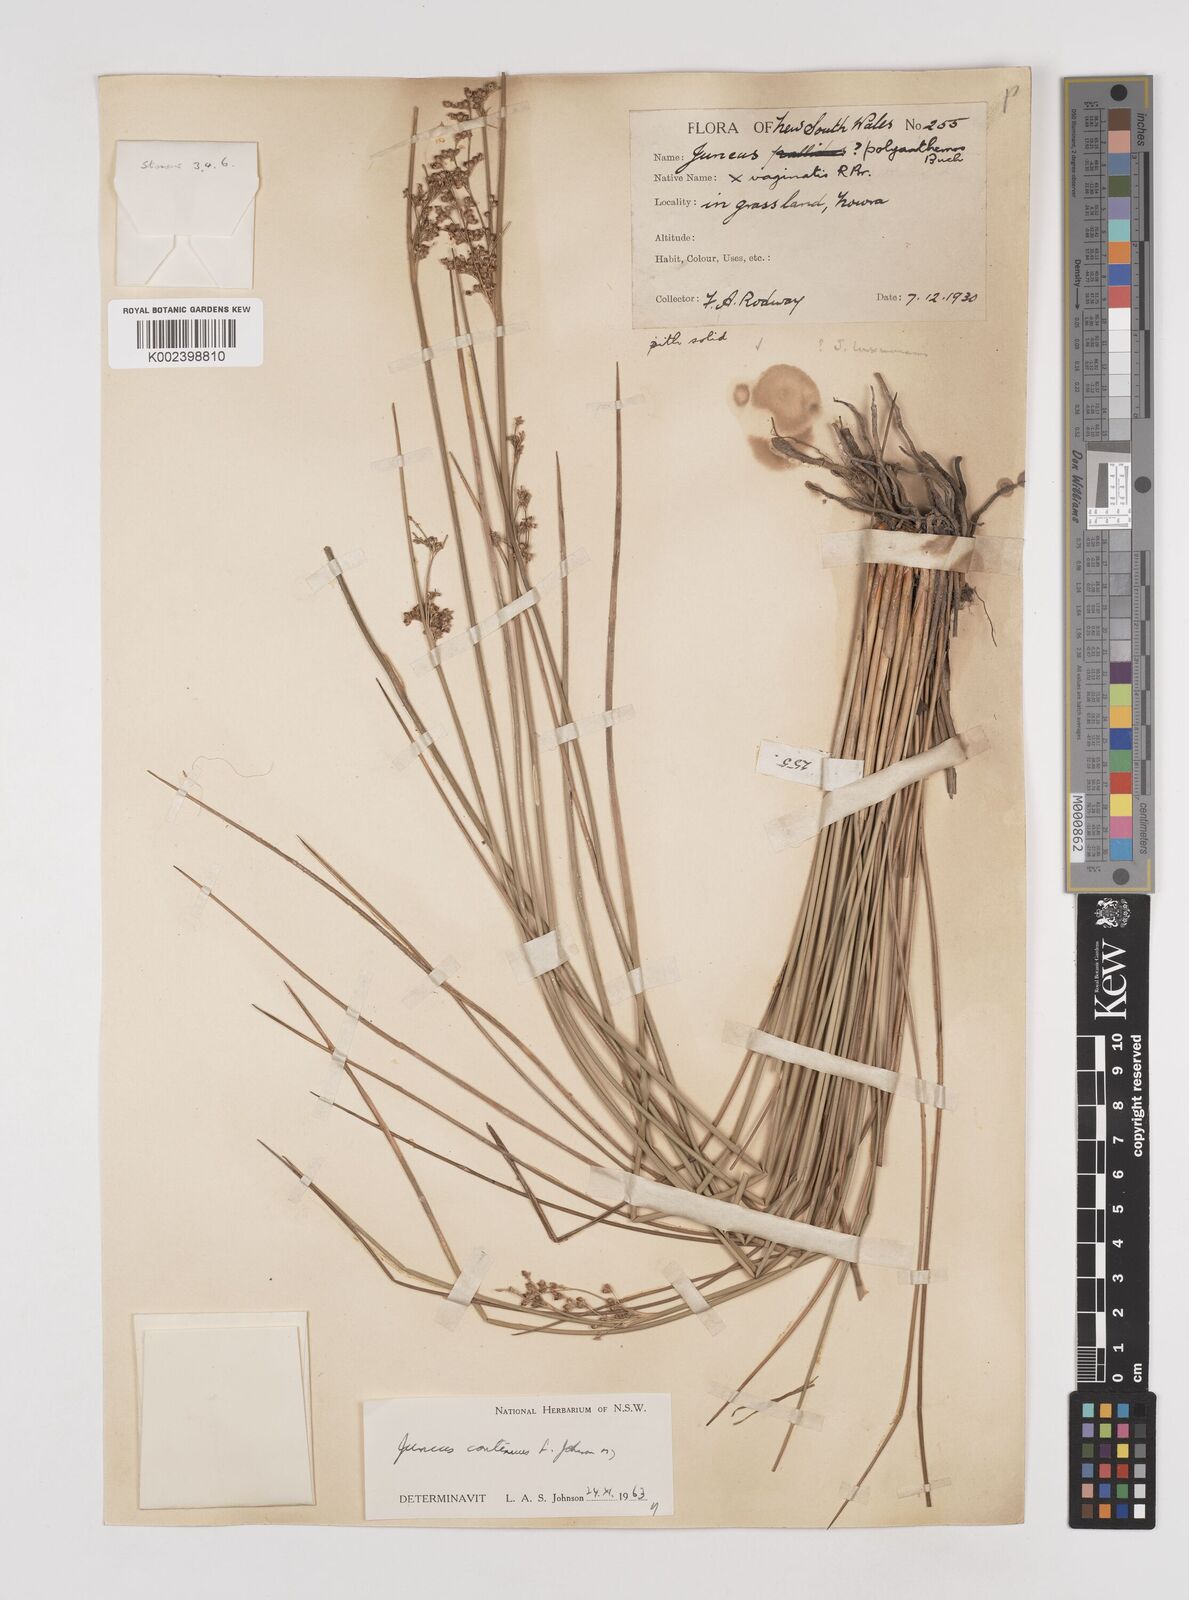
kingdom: Plantae
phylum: Tracheophyta
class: Liliopsida
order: Poales
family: Juncaceae
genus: Juncus
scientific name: Juncus continuus
